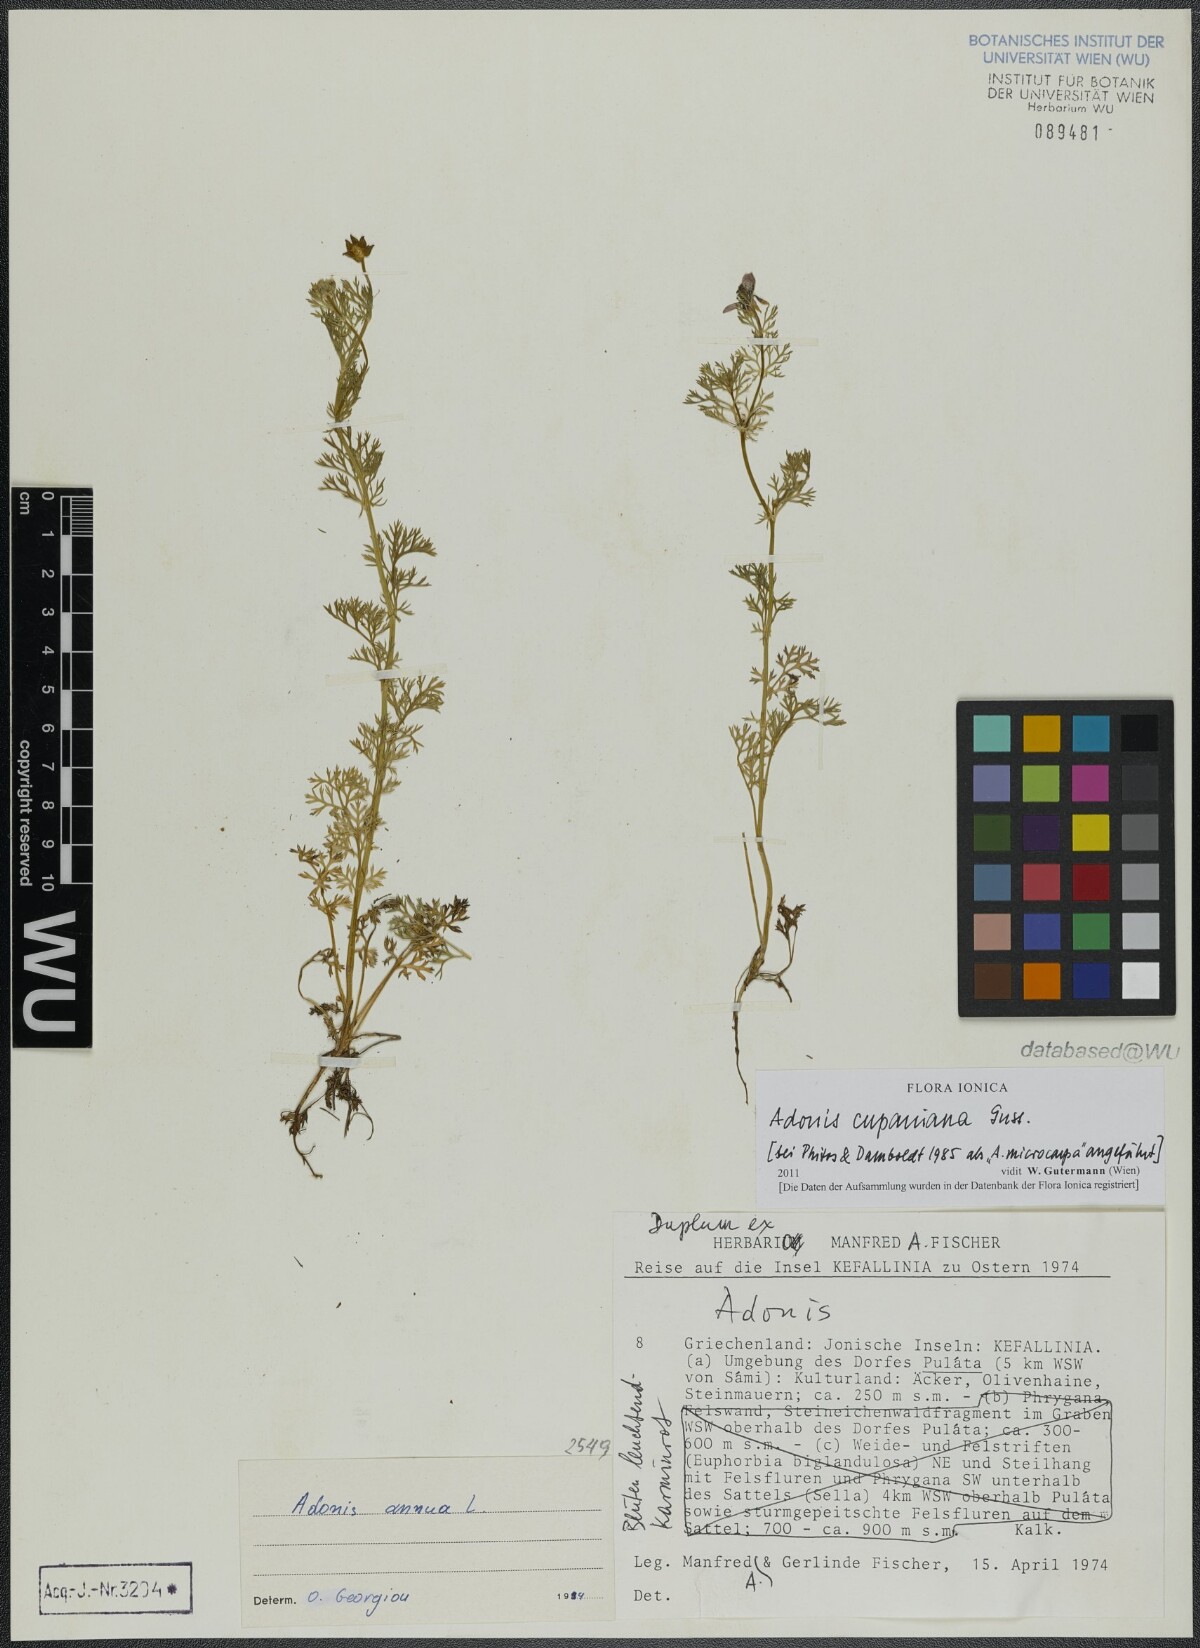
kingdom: Plantae
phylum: Tracheophyta
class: Magnoliopsida
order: Ranunculales
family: Ranunculaceae
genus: Adonis
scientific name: Adonis annua
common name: Pheasant's-eye
